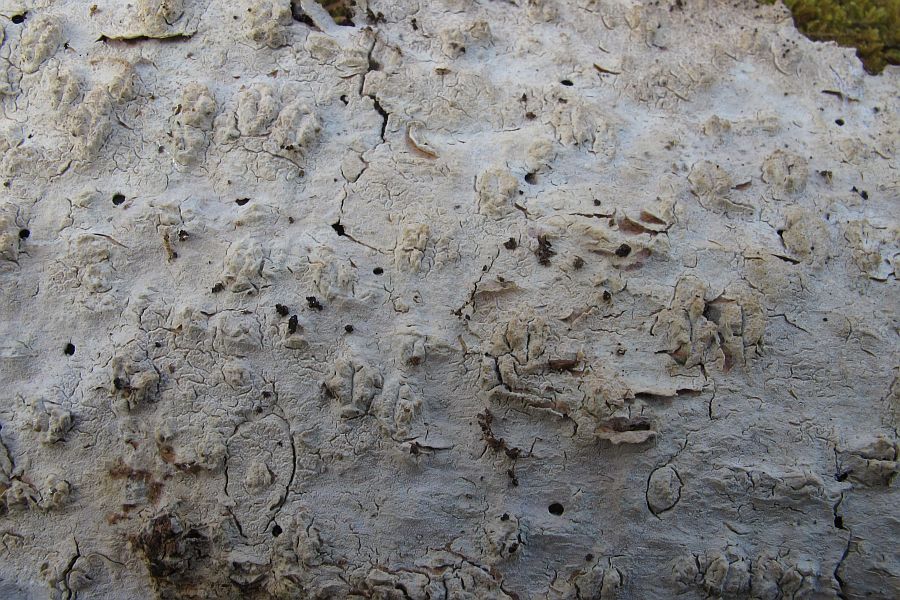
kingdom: Fungi
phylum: Basidiomycota
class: Agaricomycetes
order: Hymenochaetales
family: Rickenellaceae
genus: Resinicium
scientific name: Resinicium bicolor
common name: almindelig vokstand
